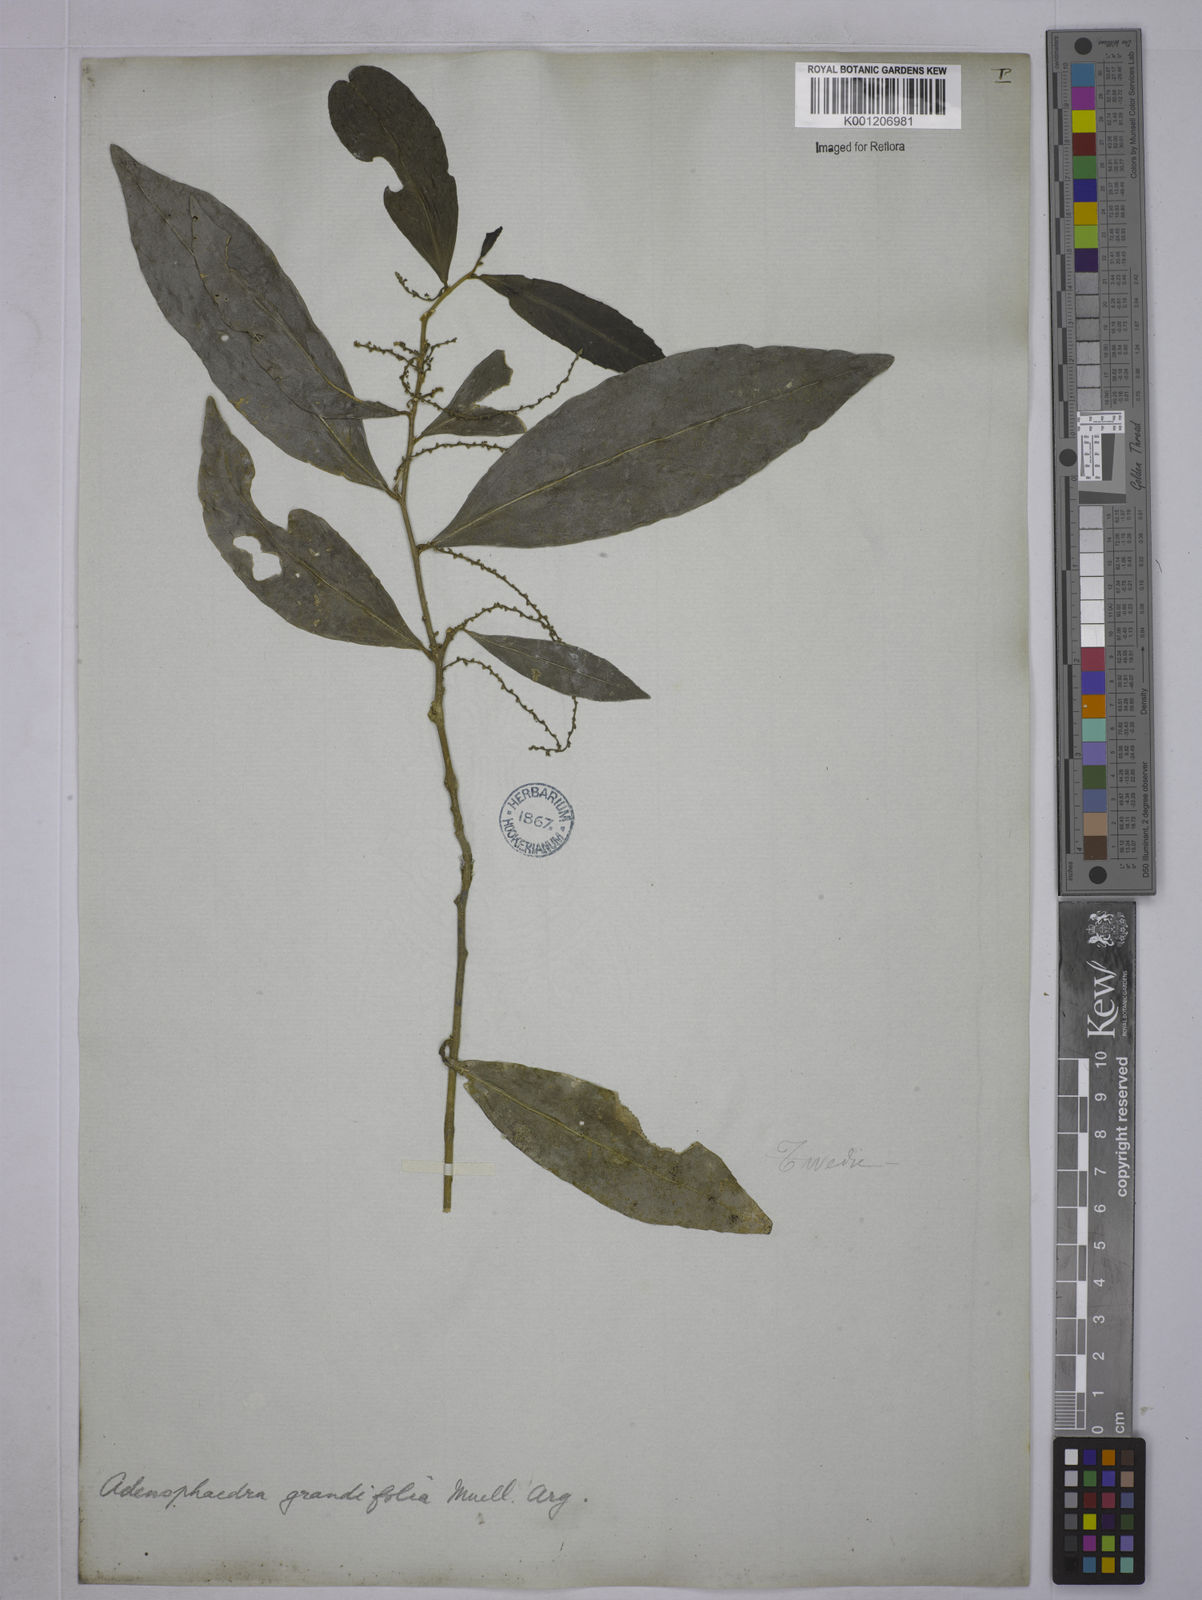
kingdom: Plantae
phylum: Tracheophyta
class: Magnoliopsida
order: Malpighiales
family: Euphorbiaceae
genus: Adenophaedra
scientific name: Adenophaedra
